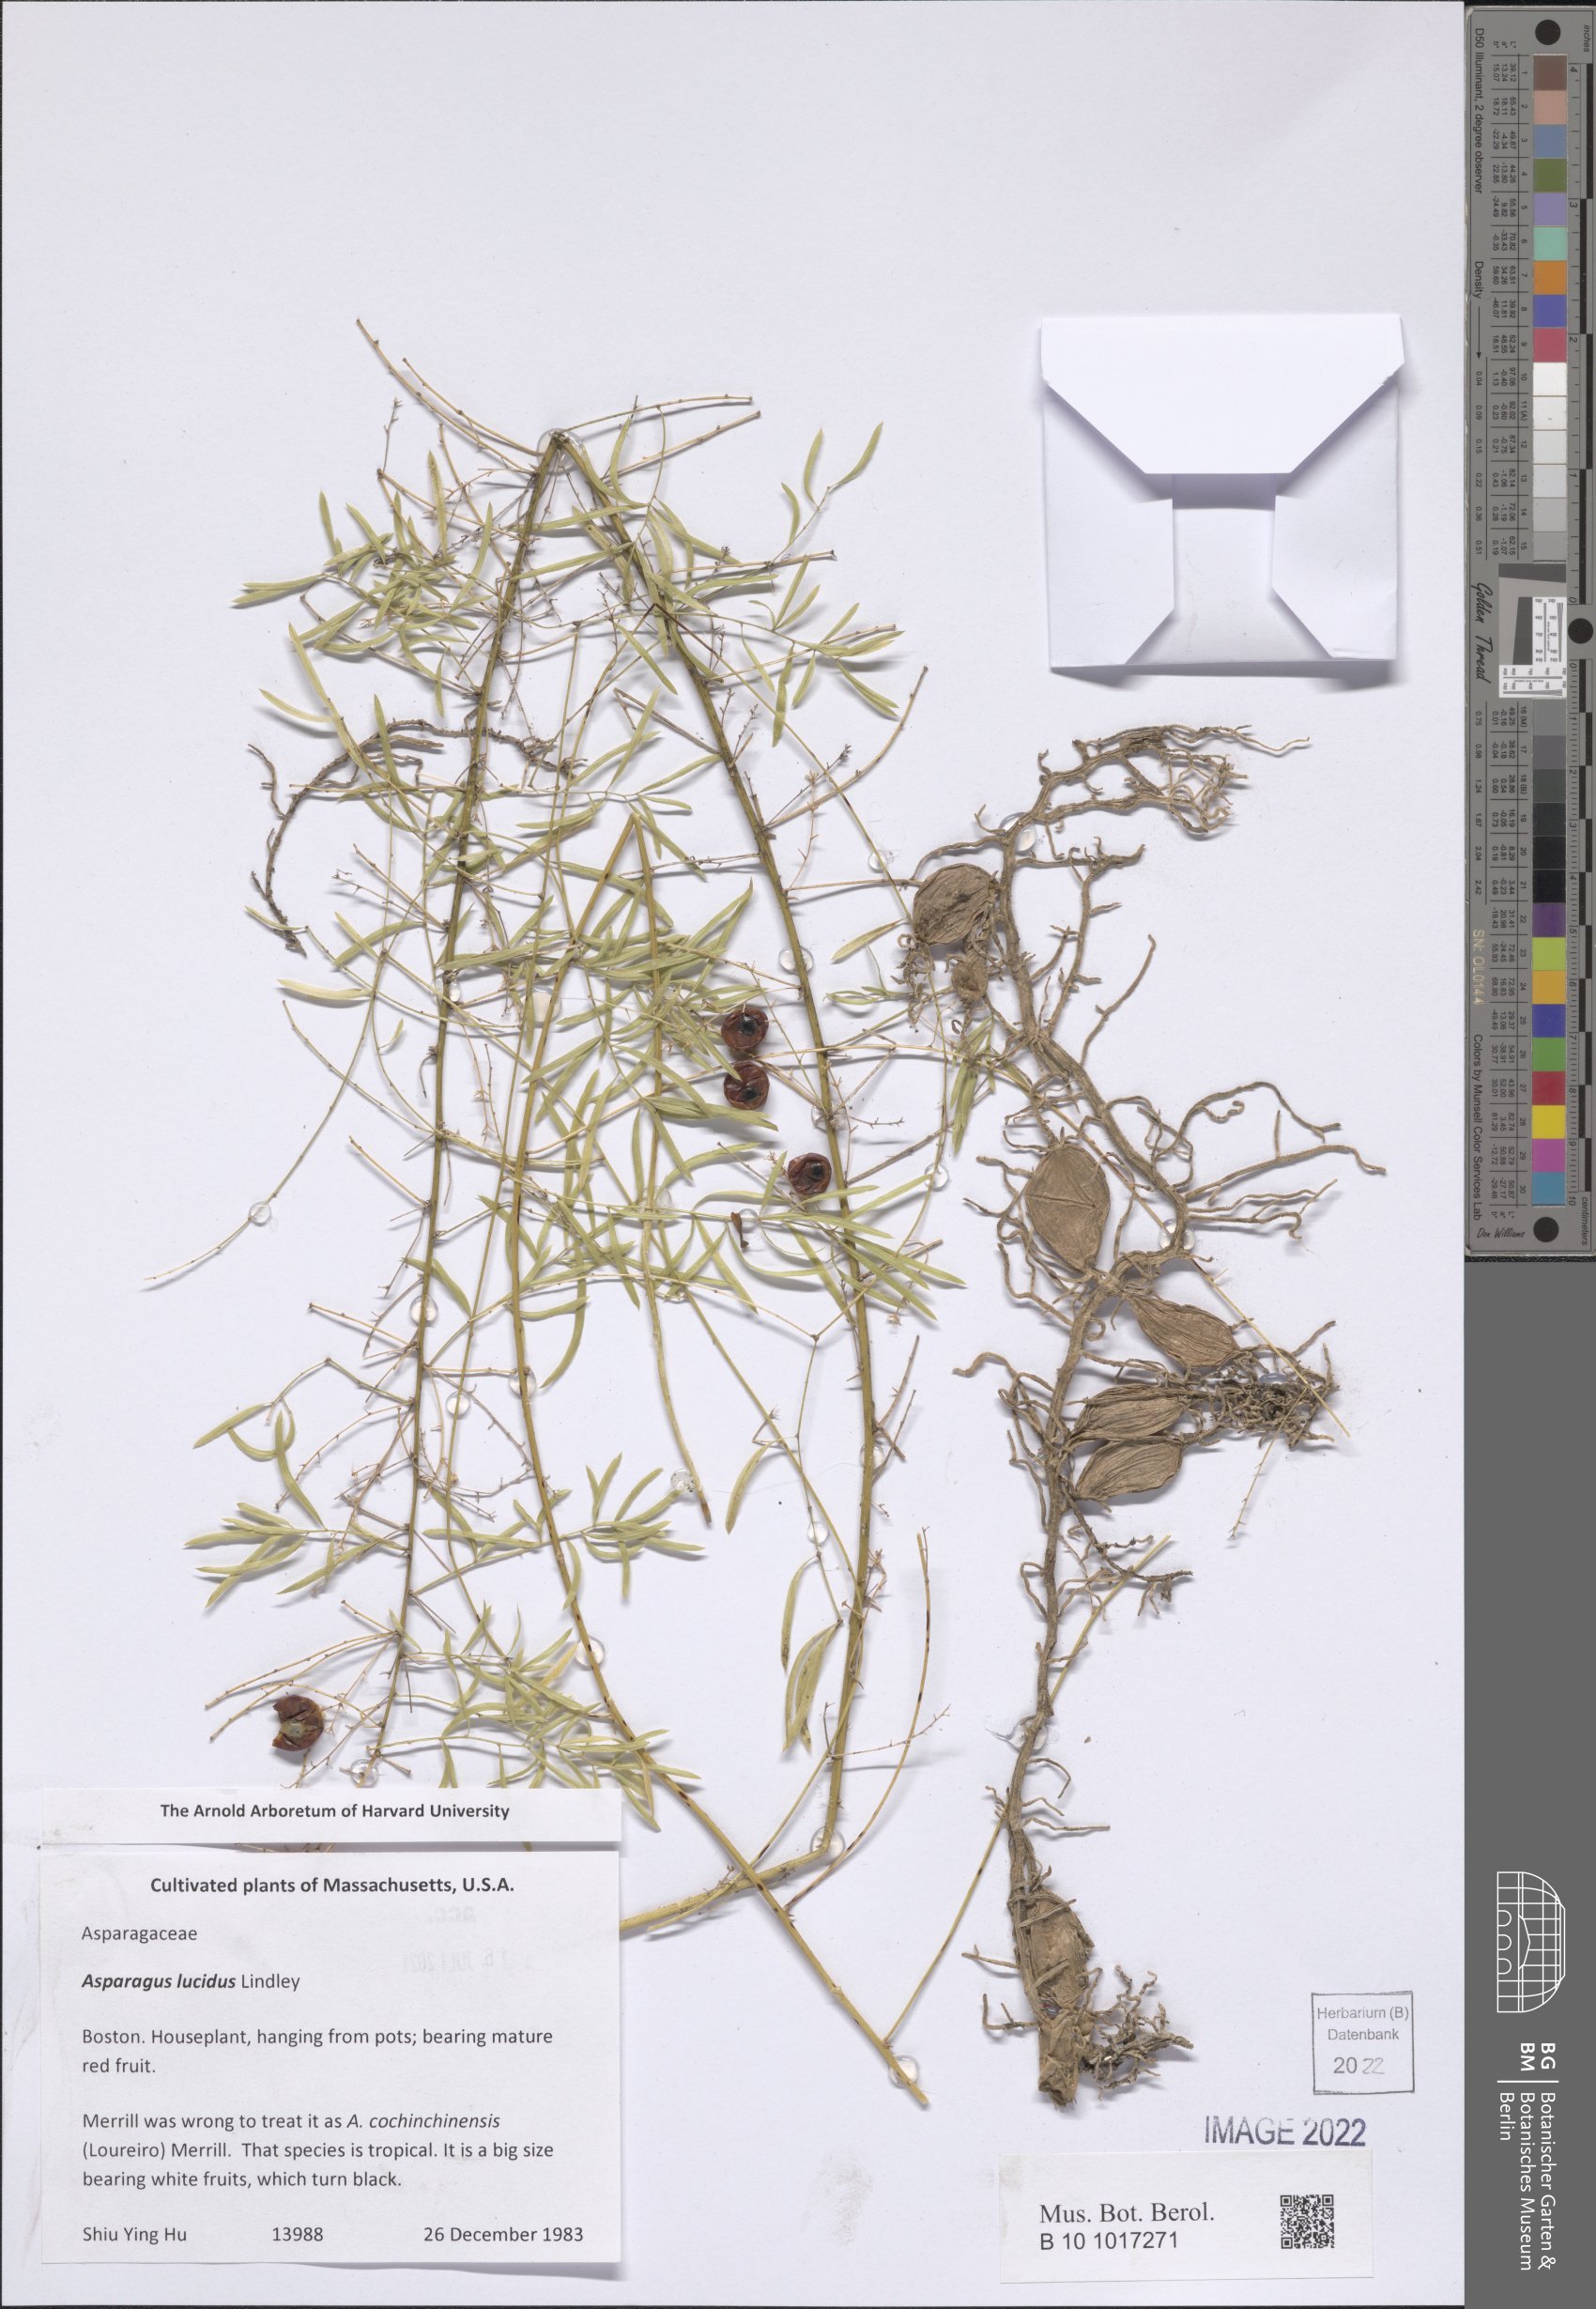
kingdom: Plantae
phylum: Tracheophyta
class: Liliopsida
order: Asparagales
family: Asparagaceae
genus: Asparagus
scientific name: Asparagus cochinchinensis
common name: Chinese asparagus
